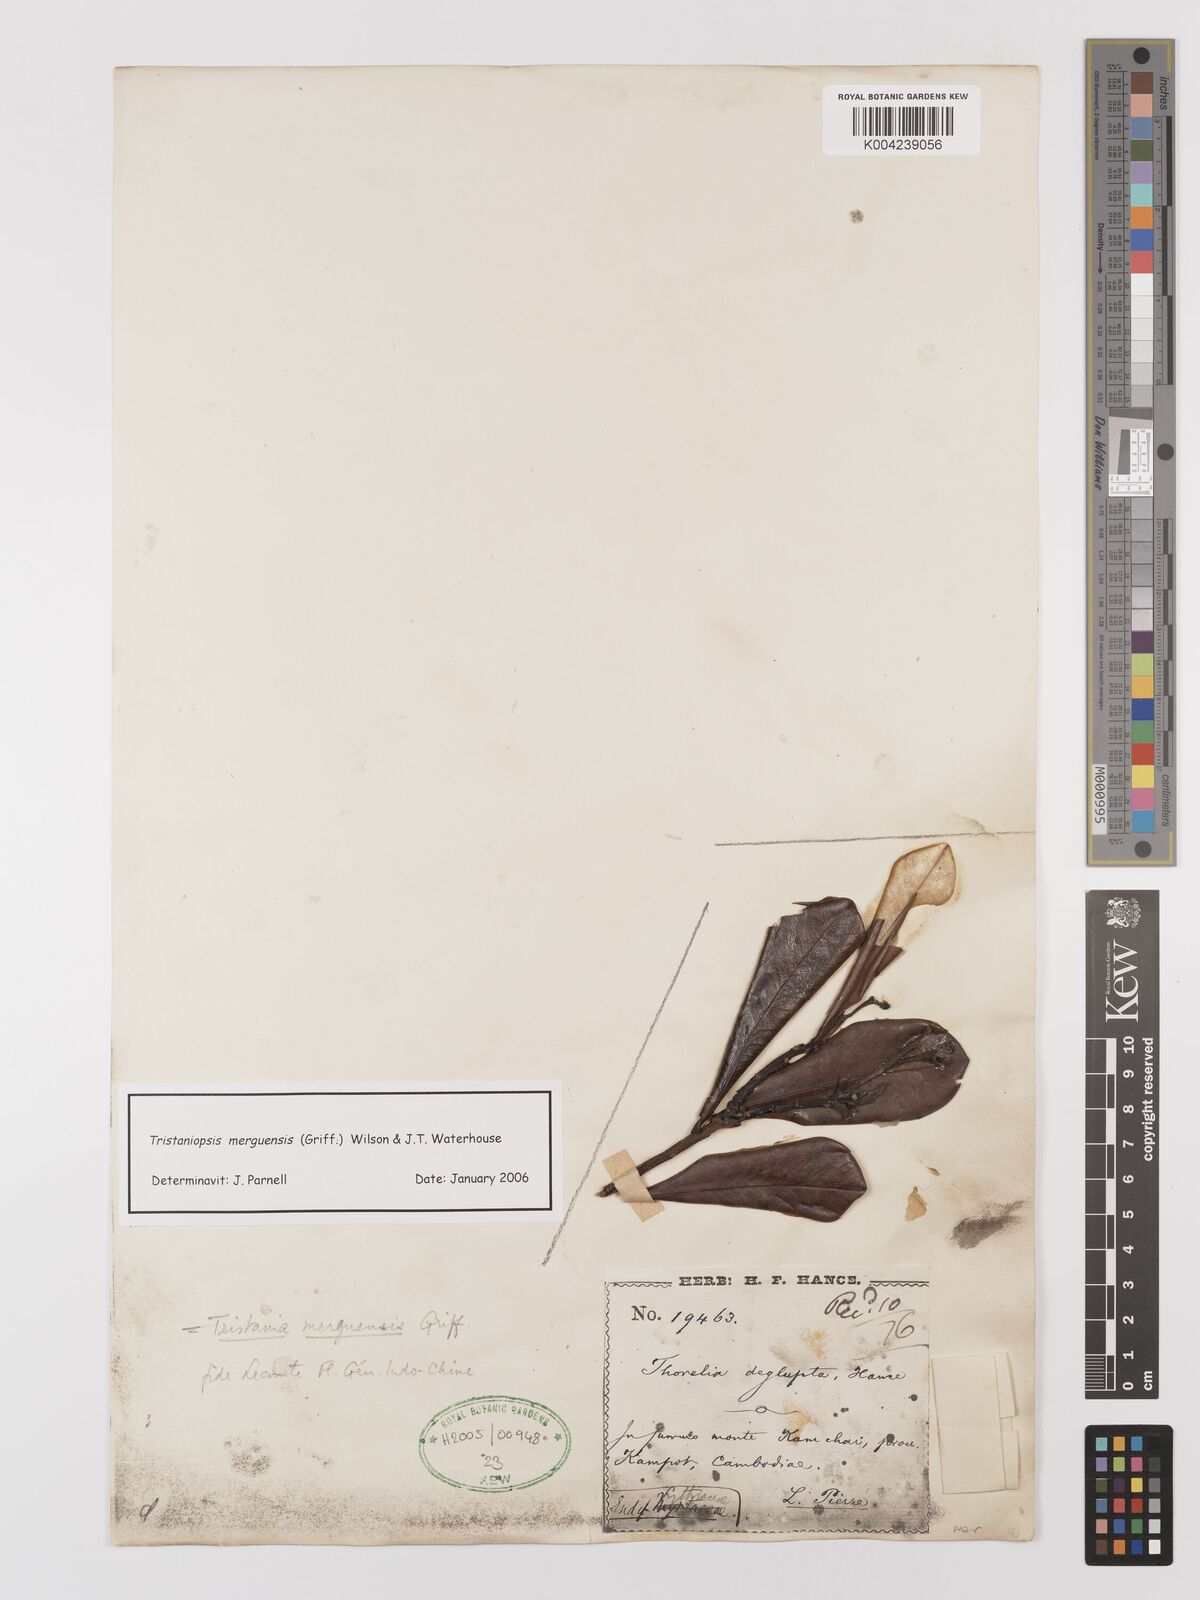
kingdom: Plantae
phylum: Tracheophyta
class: Magnoliopsida
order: Myrtales
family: Myrtaceae
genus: Tristaniopsis
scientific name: Tristaniopsis merguensis
